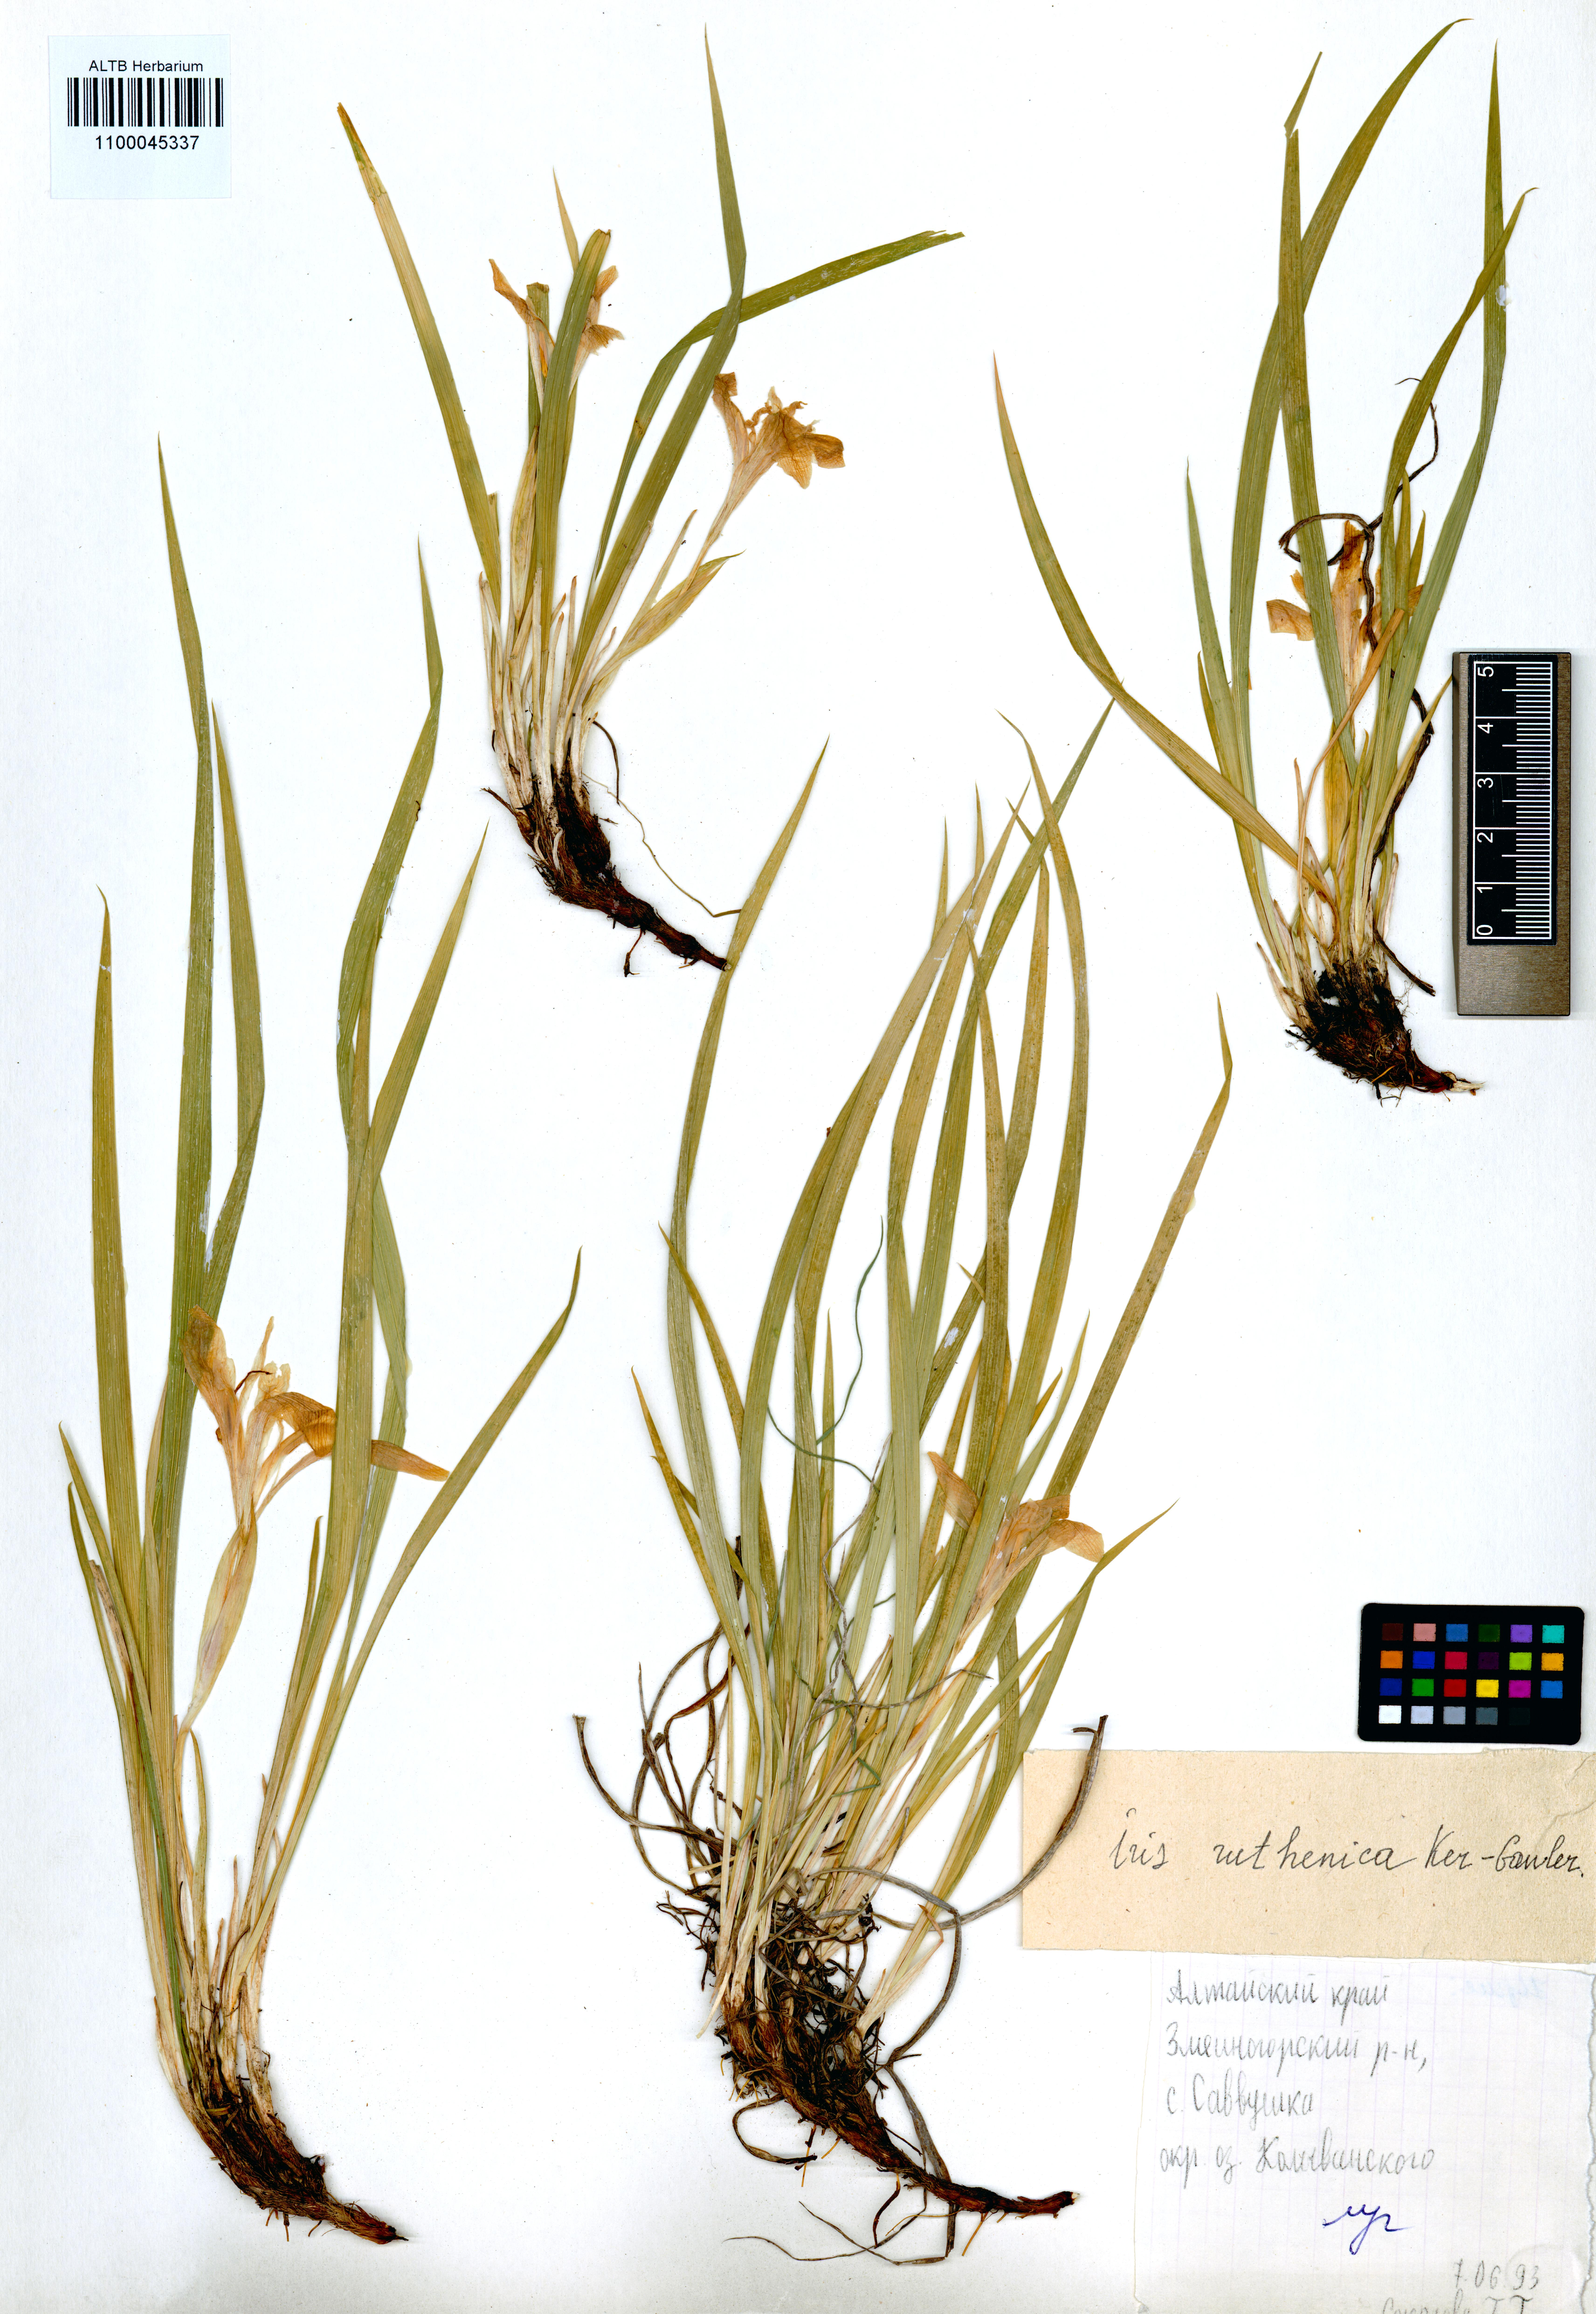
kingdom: Plantae
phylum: Tracheophyta
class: Liliopsida
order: Asparagales
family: Iridaceae
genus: Iris
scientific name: Iris ruthenica
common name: Purple-bract iris
